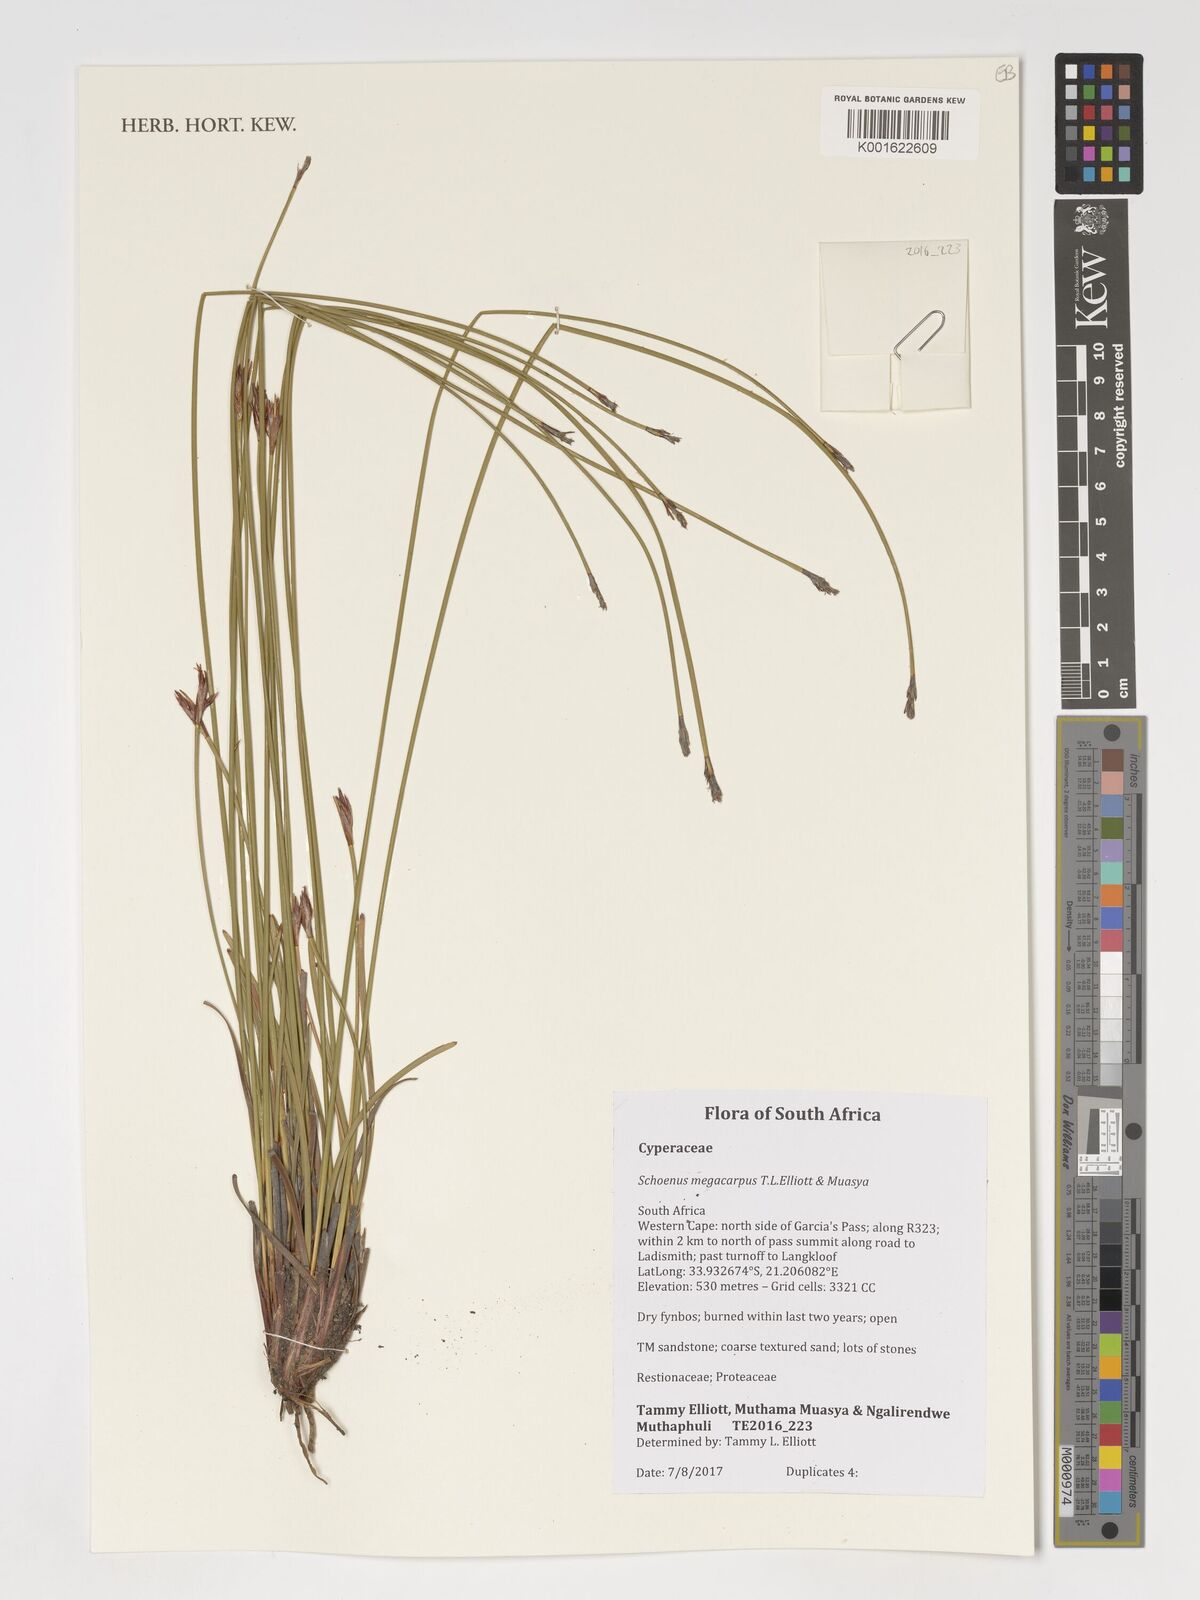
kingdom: Plantae
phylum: Tracheophyta
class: Liliopsida
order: Poales
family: Cyperaceae
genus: Schoenus
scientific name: Schoenus megacarpus
